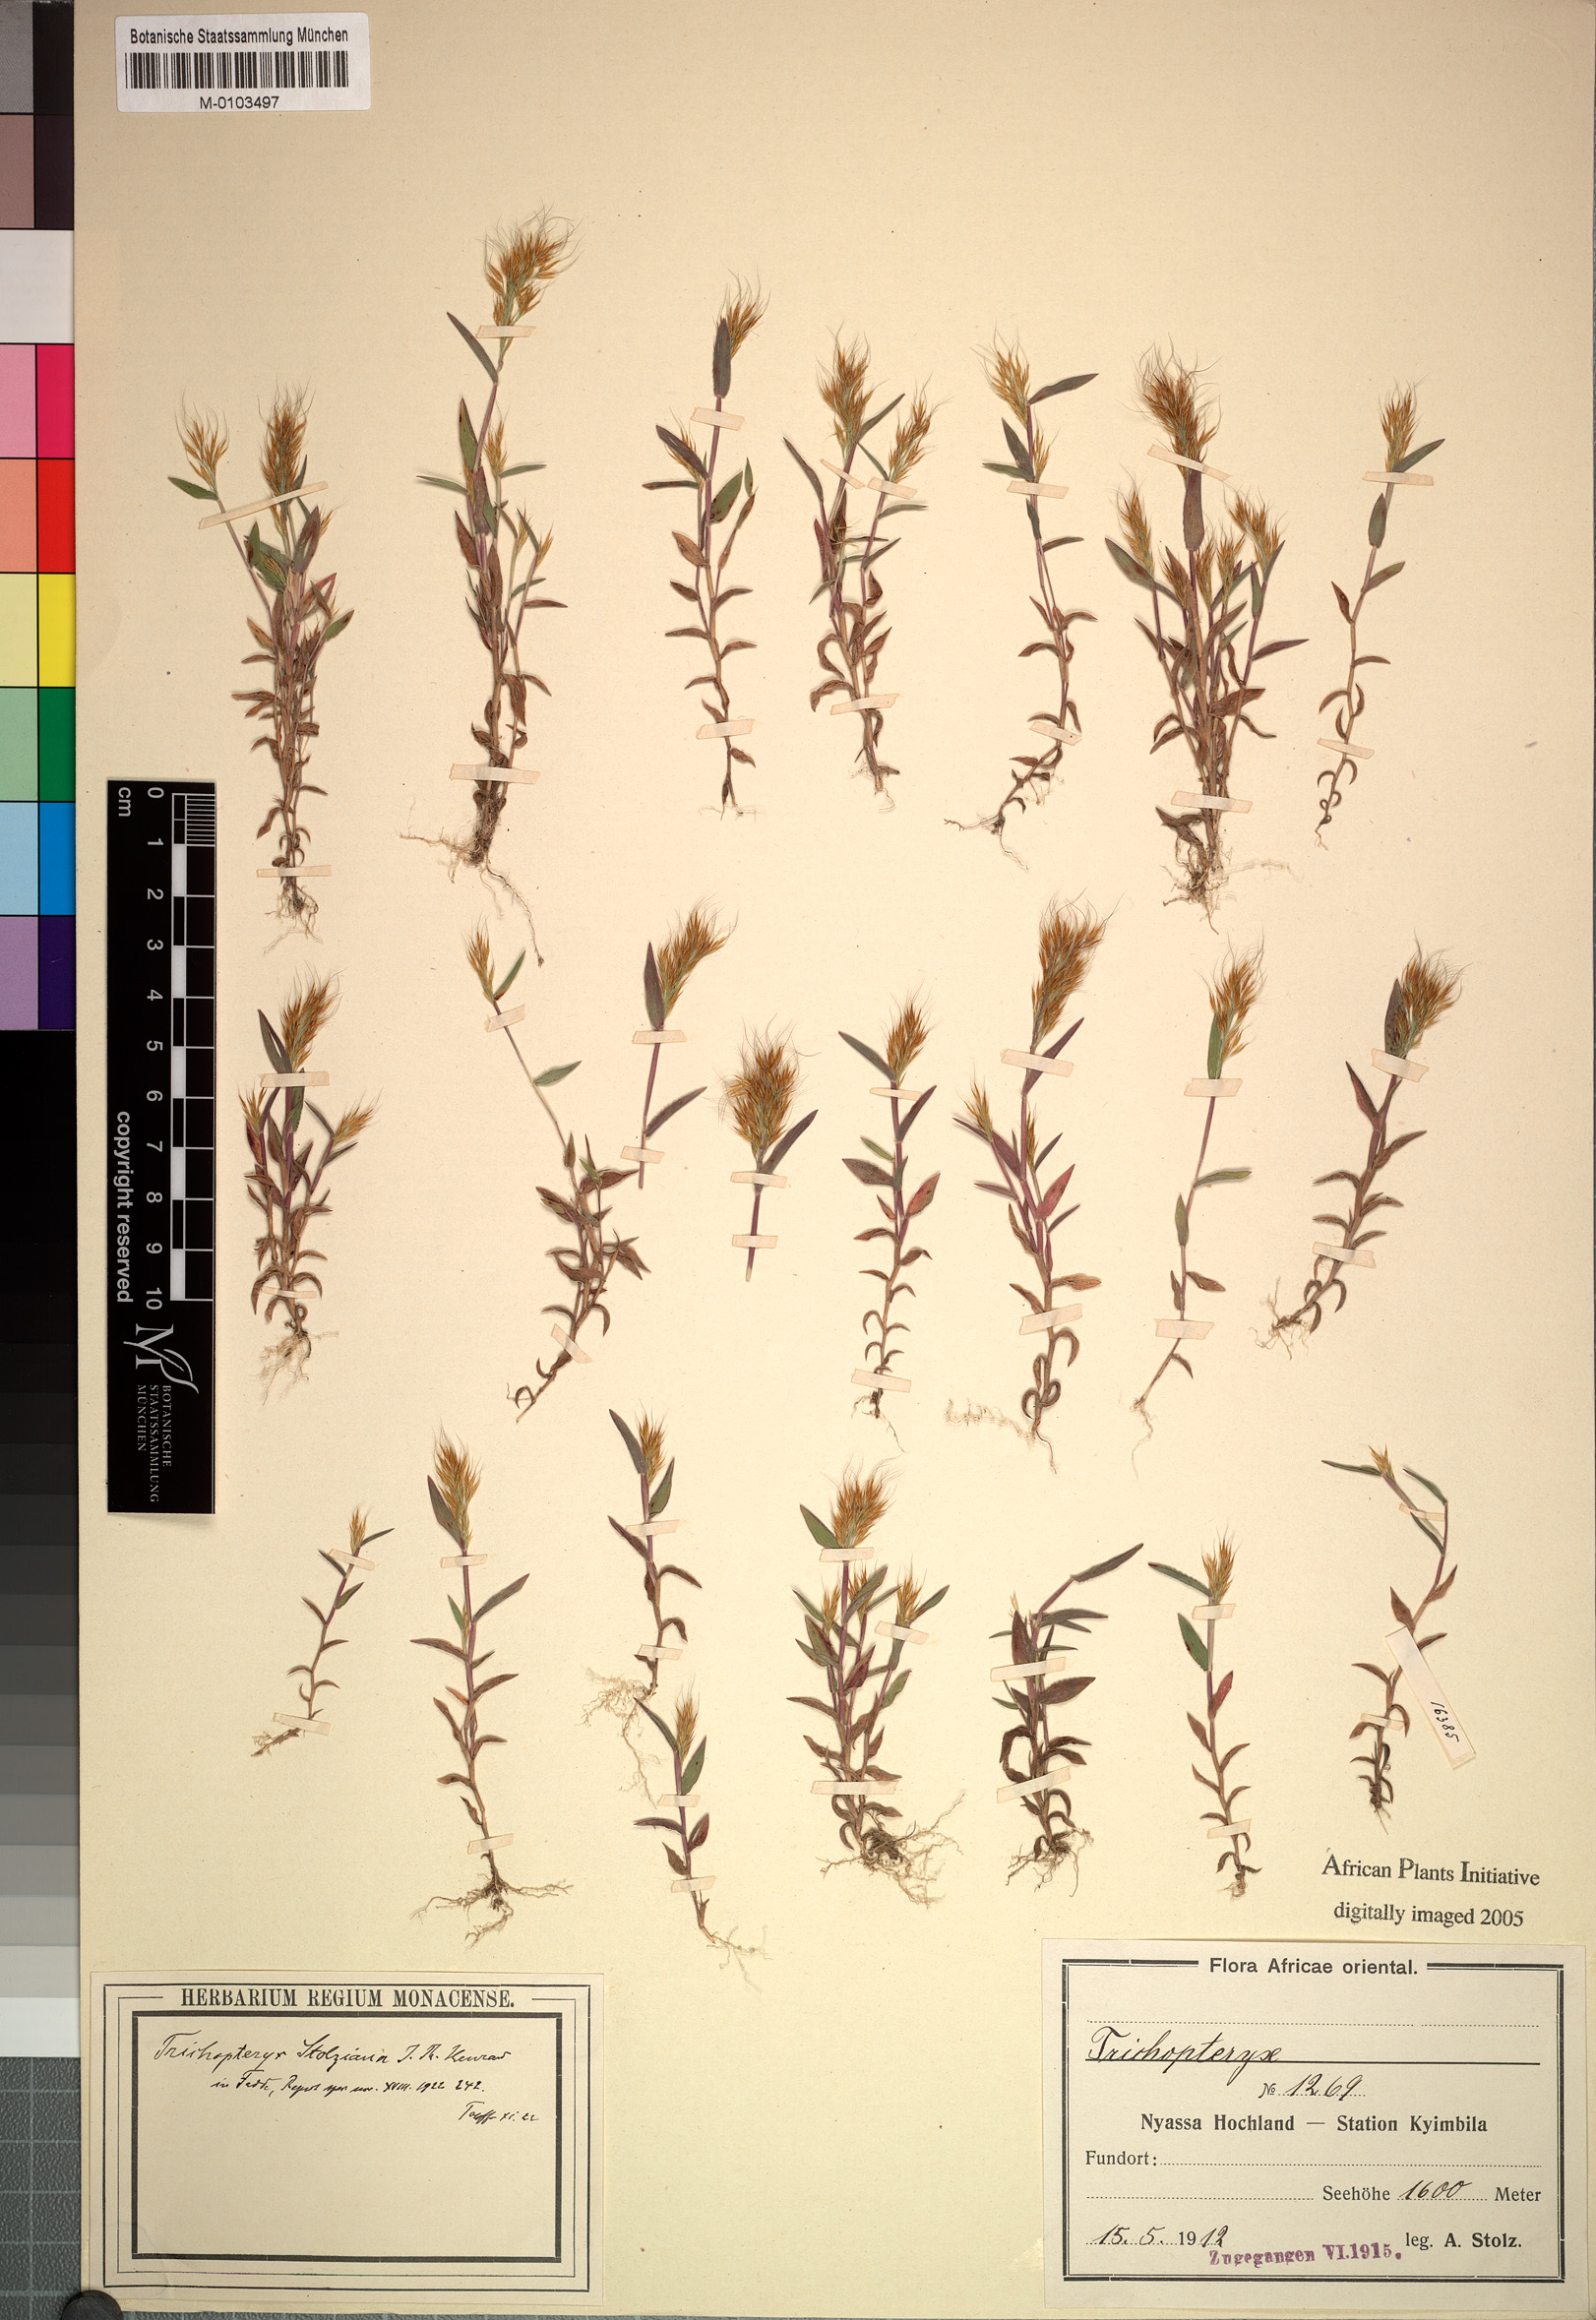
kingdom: Plantae
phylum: Tracheophyta
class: Liliopsida
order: Poales
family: Poaceae
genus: Trichopteryx
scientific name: Trichopteryx stolziana
